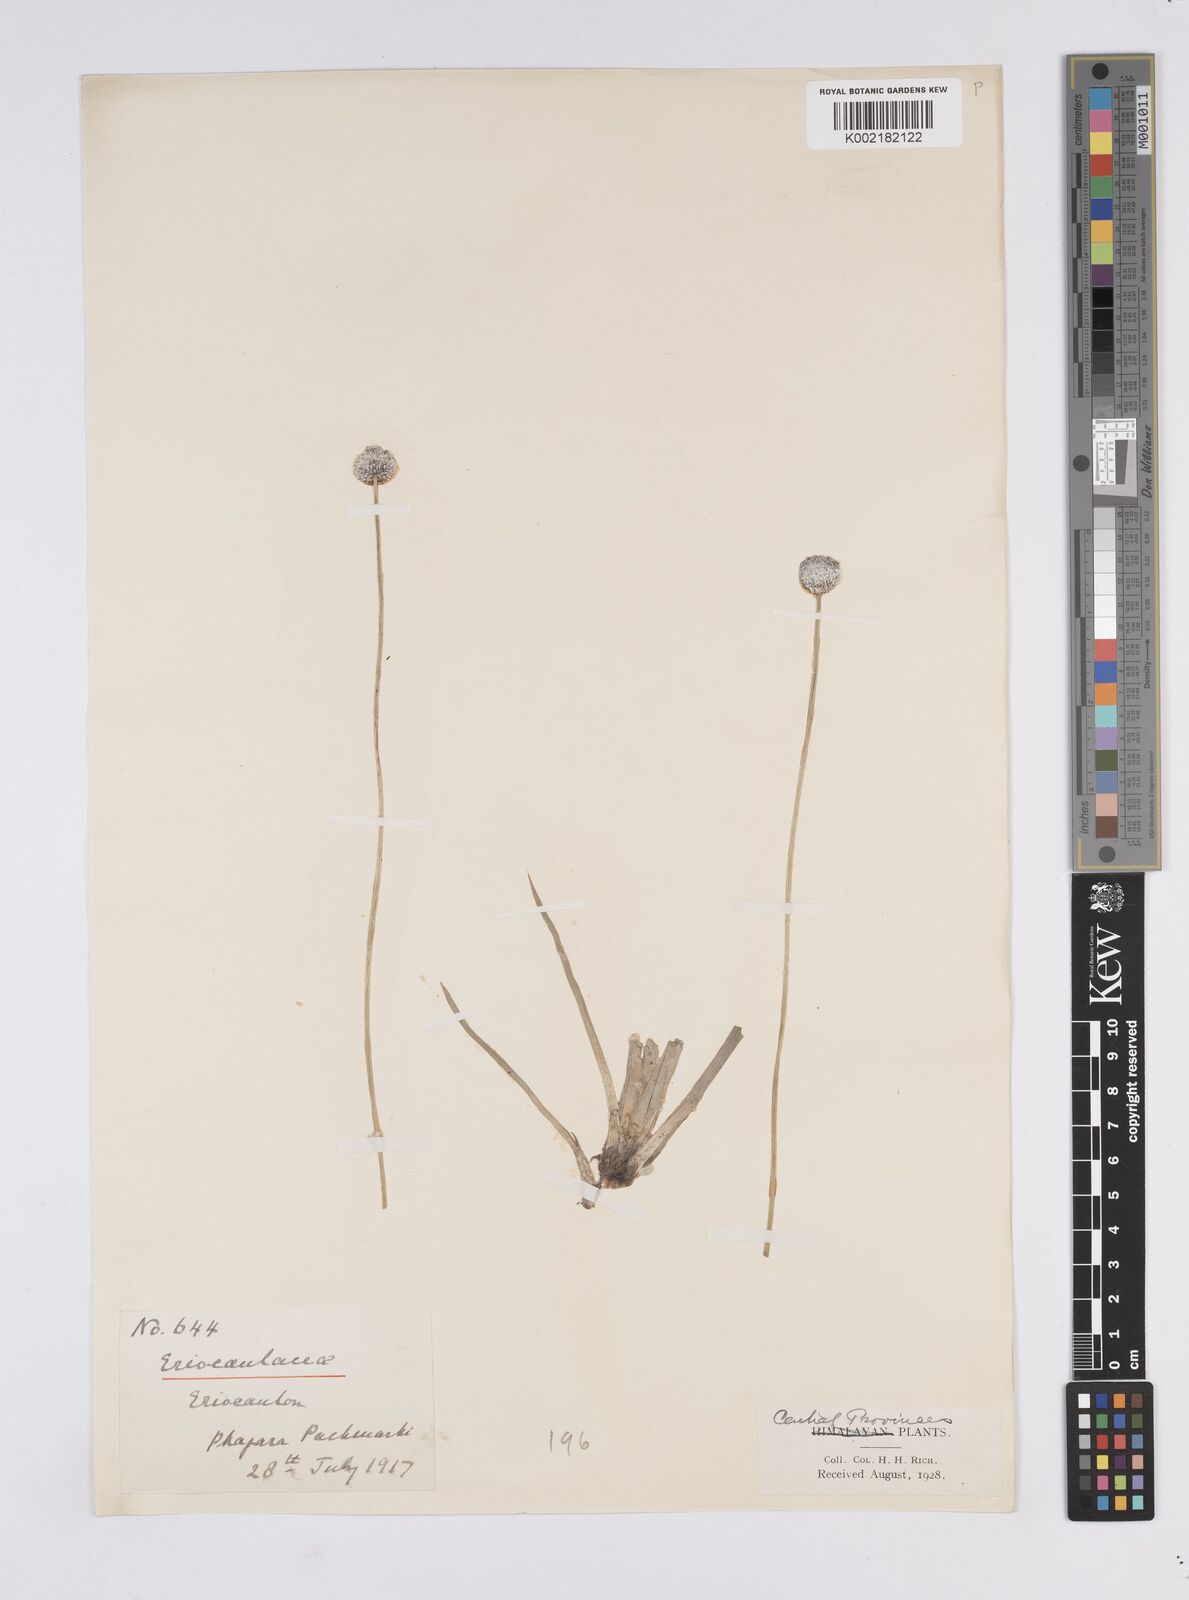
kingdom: Plantae
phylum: Tracheophyta
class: Liliopsida
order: Poales
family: Eriocaulaceae
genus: Eriocaulon
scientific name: Eriocaulon
